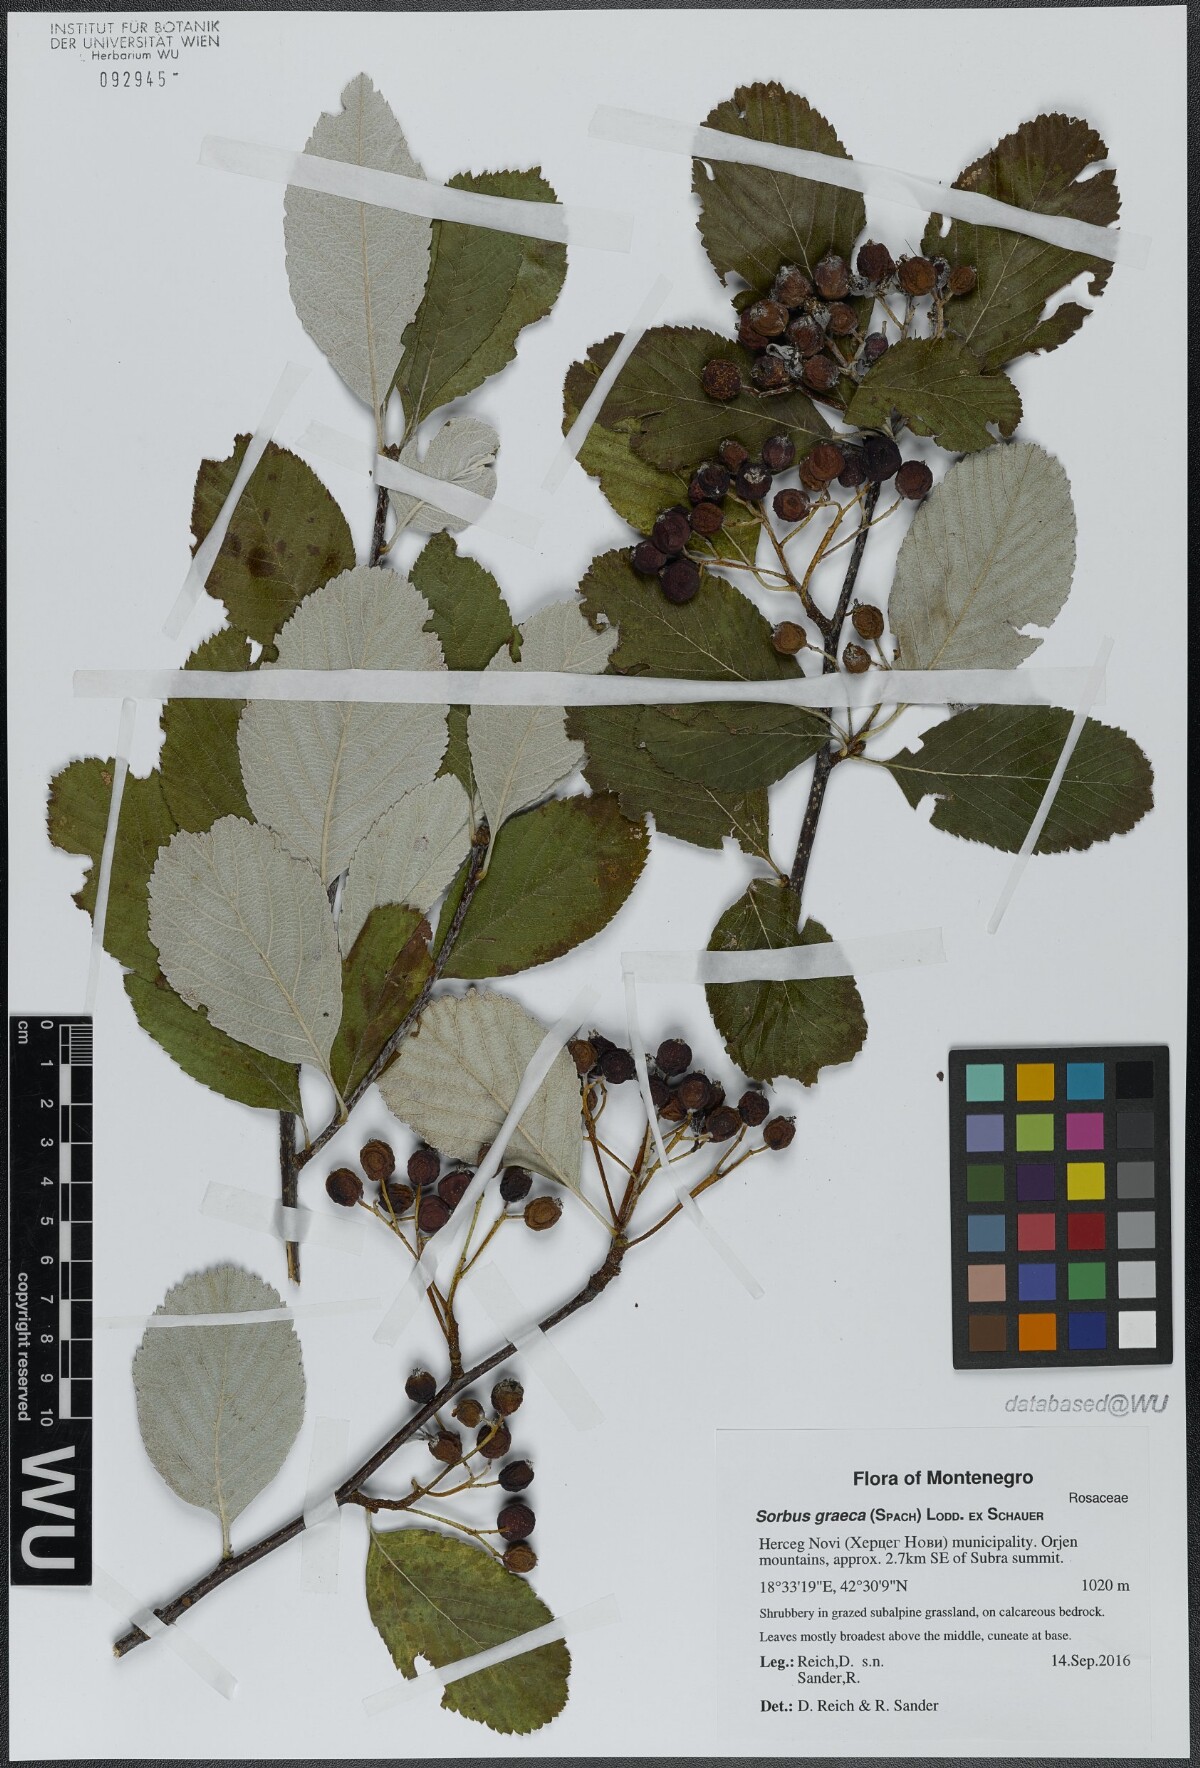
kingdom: Plantae
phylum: Tracheophyta
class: Magnoliopsida
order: Rosales
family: Rosaceae
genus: Aria
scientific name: Aria edulis
